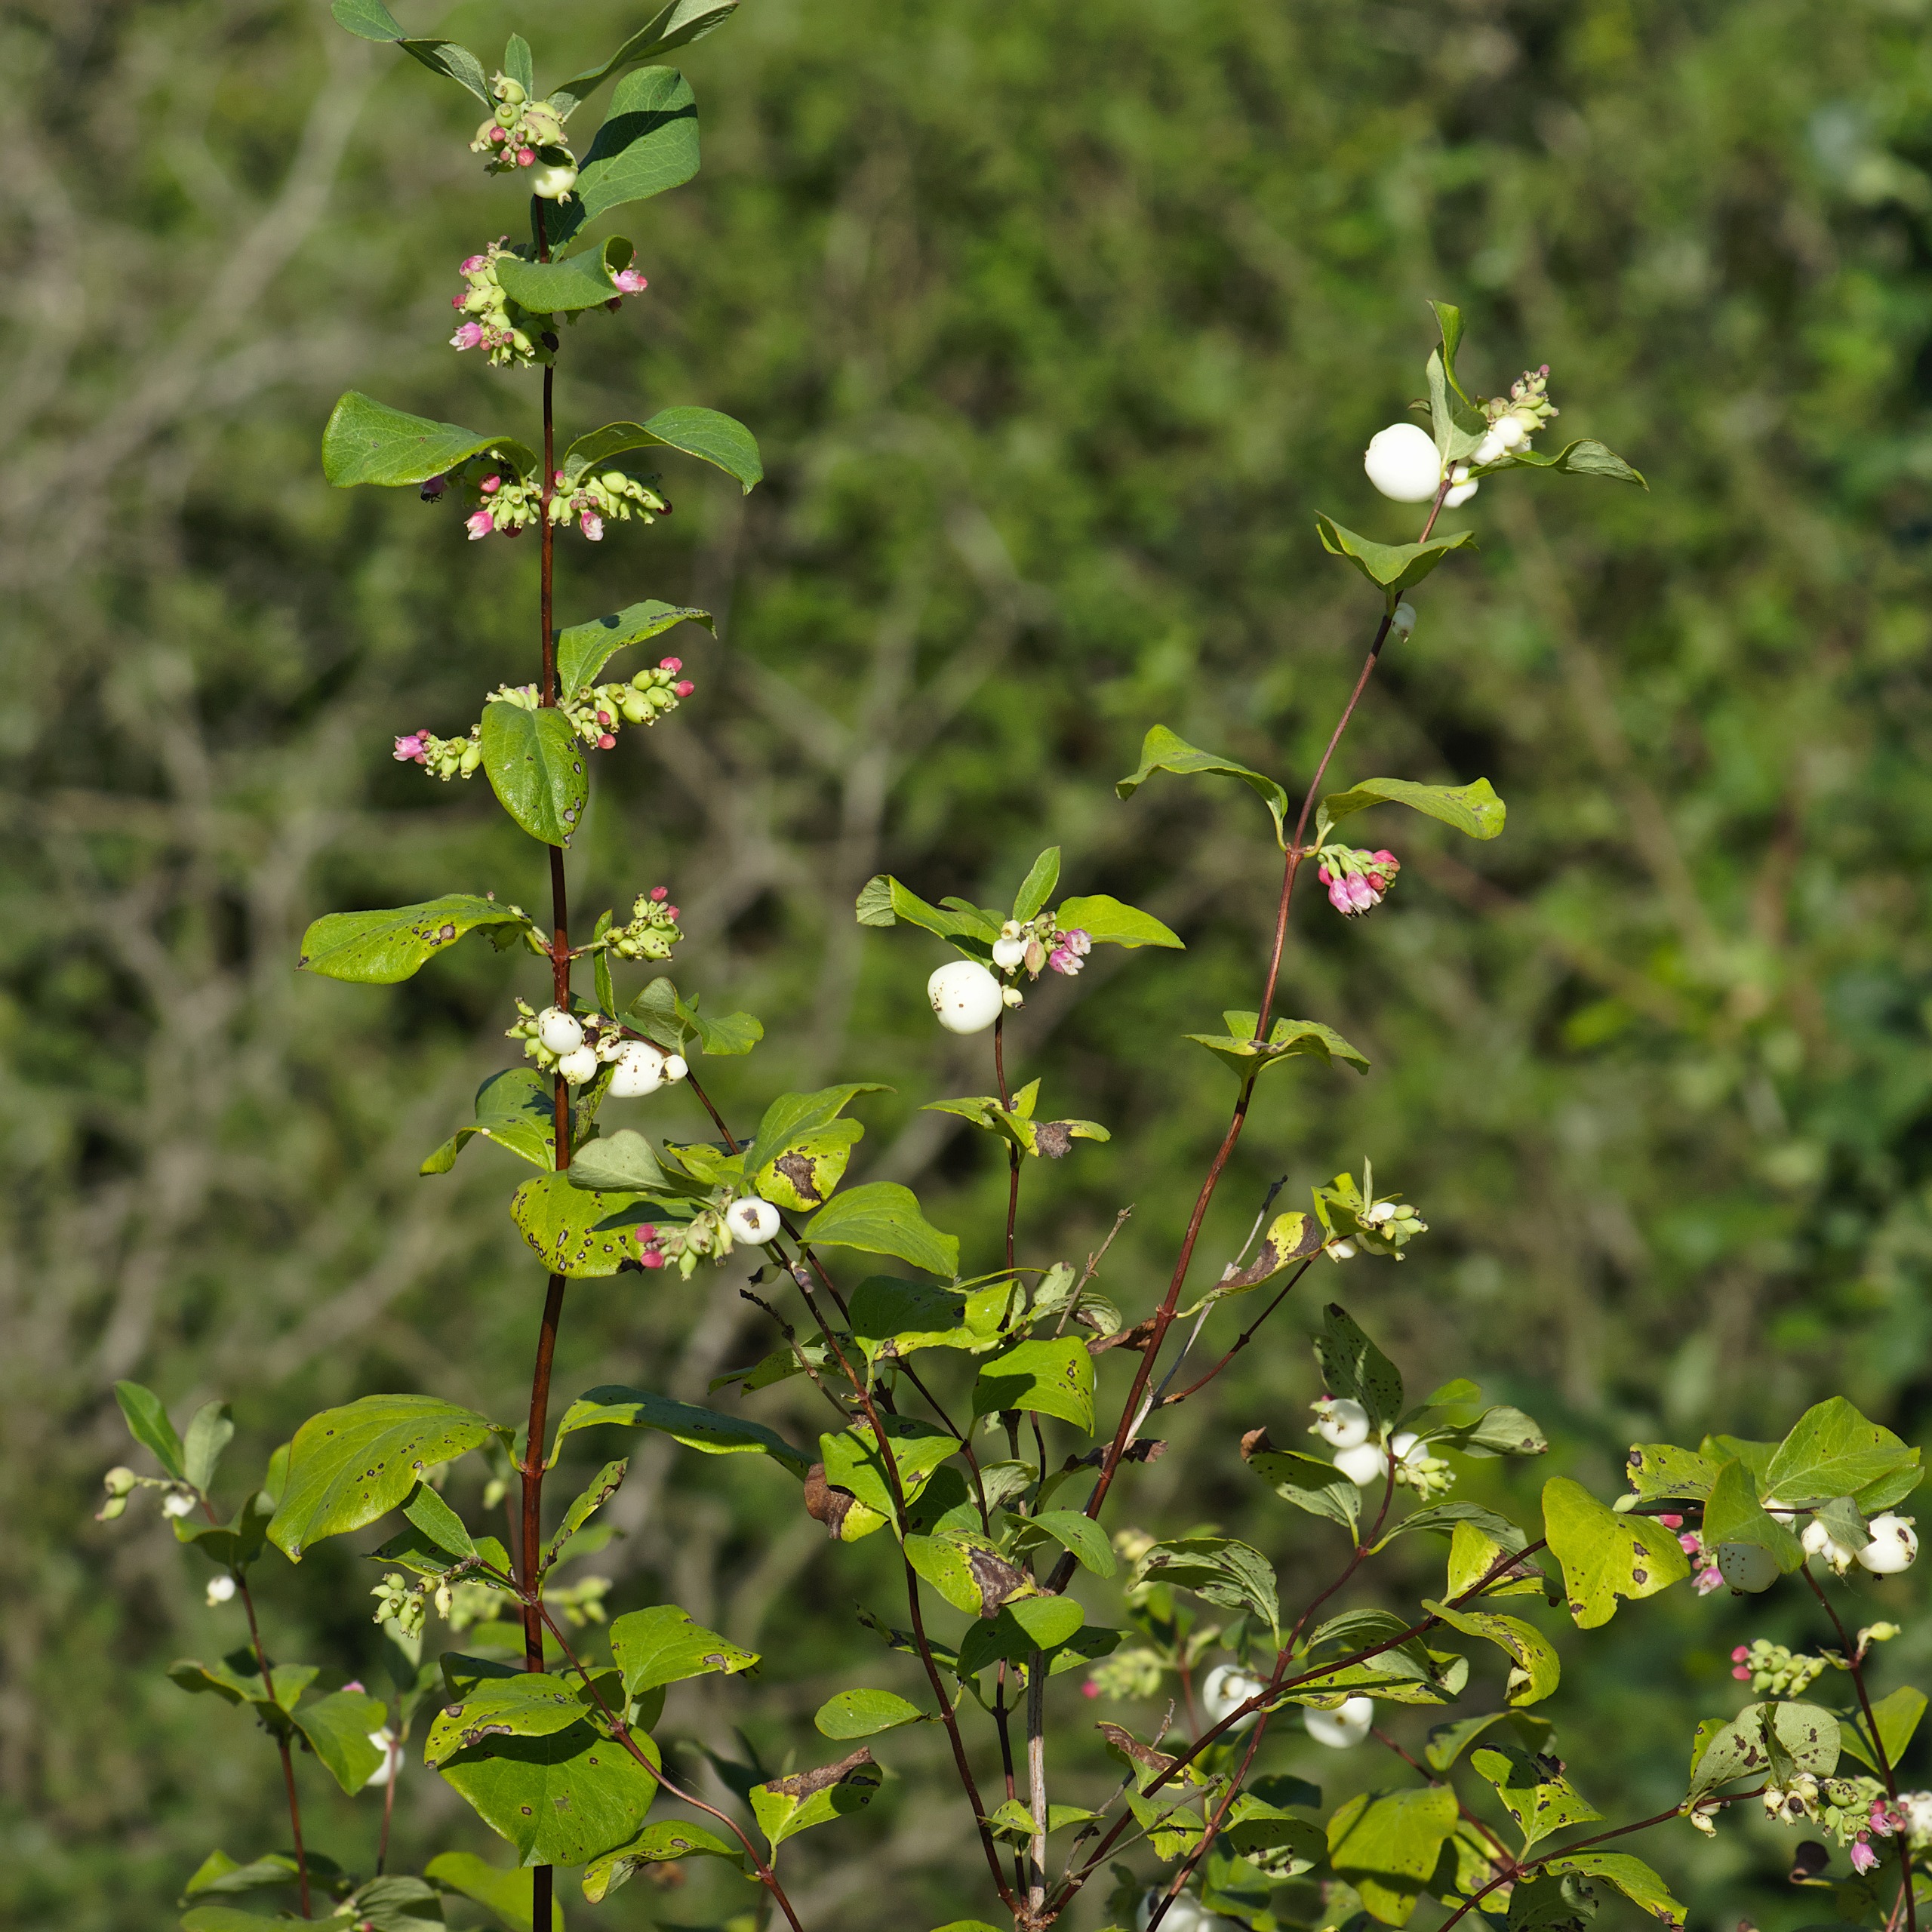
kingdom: Plantae
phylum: Tracheophyta
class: Magnoliopsida
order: Dipsacales
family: Caprifoliaceae
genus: Symphoricarpos
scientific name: Symphoricarpos albus
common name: Almindelig snebær
